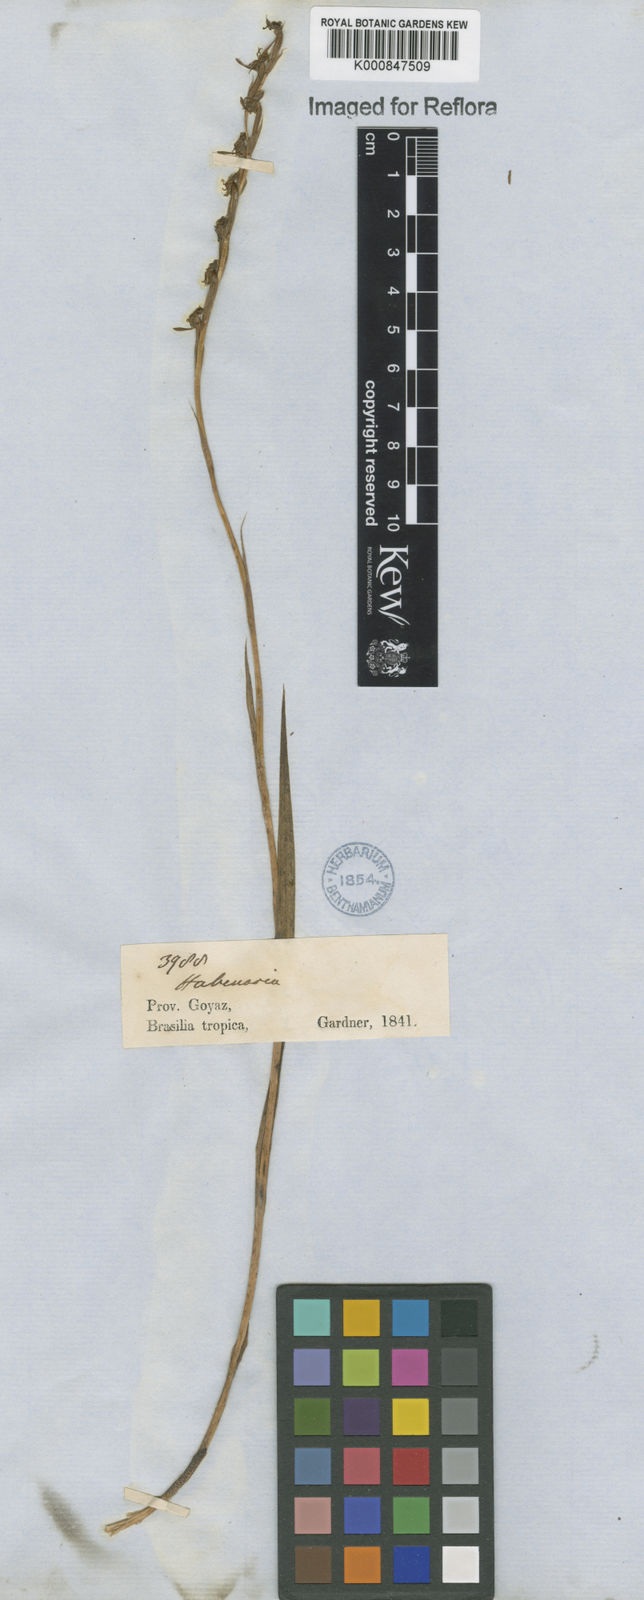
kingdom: Plantae
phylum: Tracheophyta
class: Liliopsida
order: Asparagales
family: Orchidaceae
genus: Habenaria
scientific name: Habenaria
